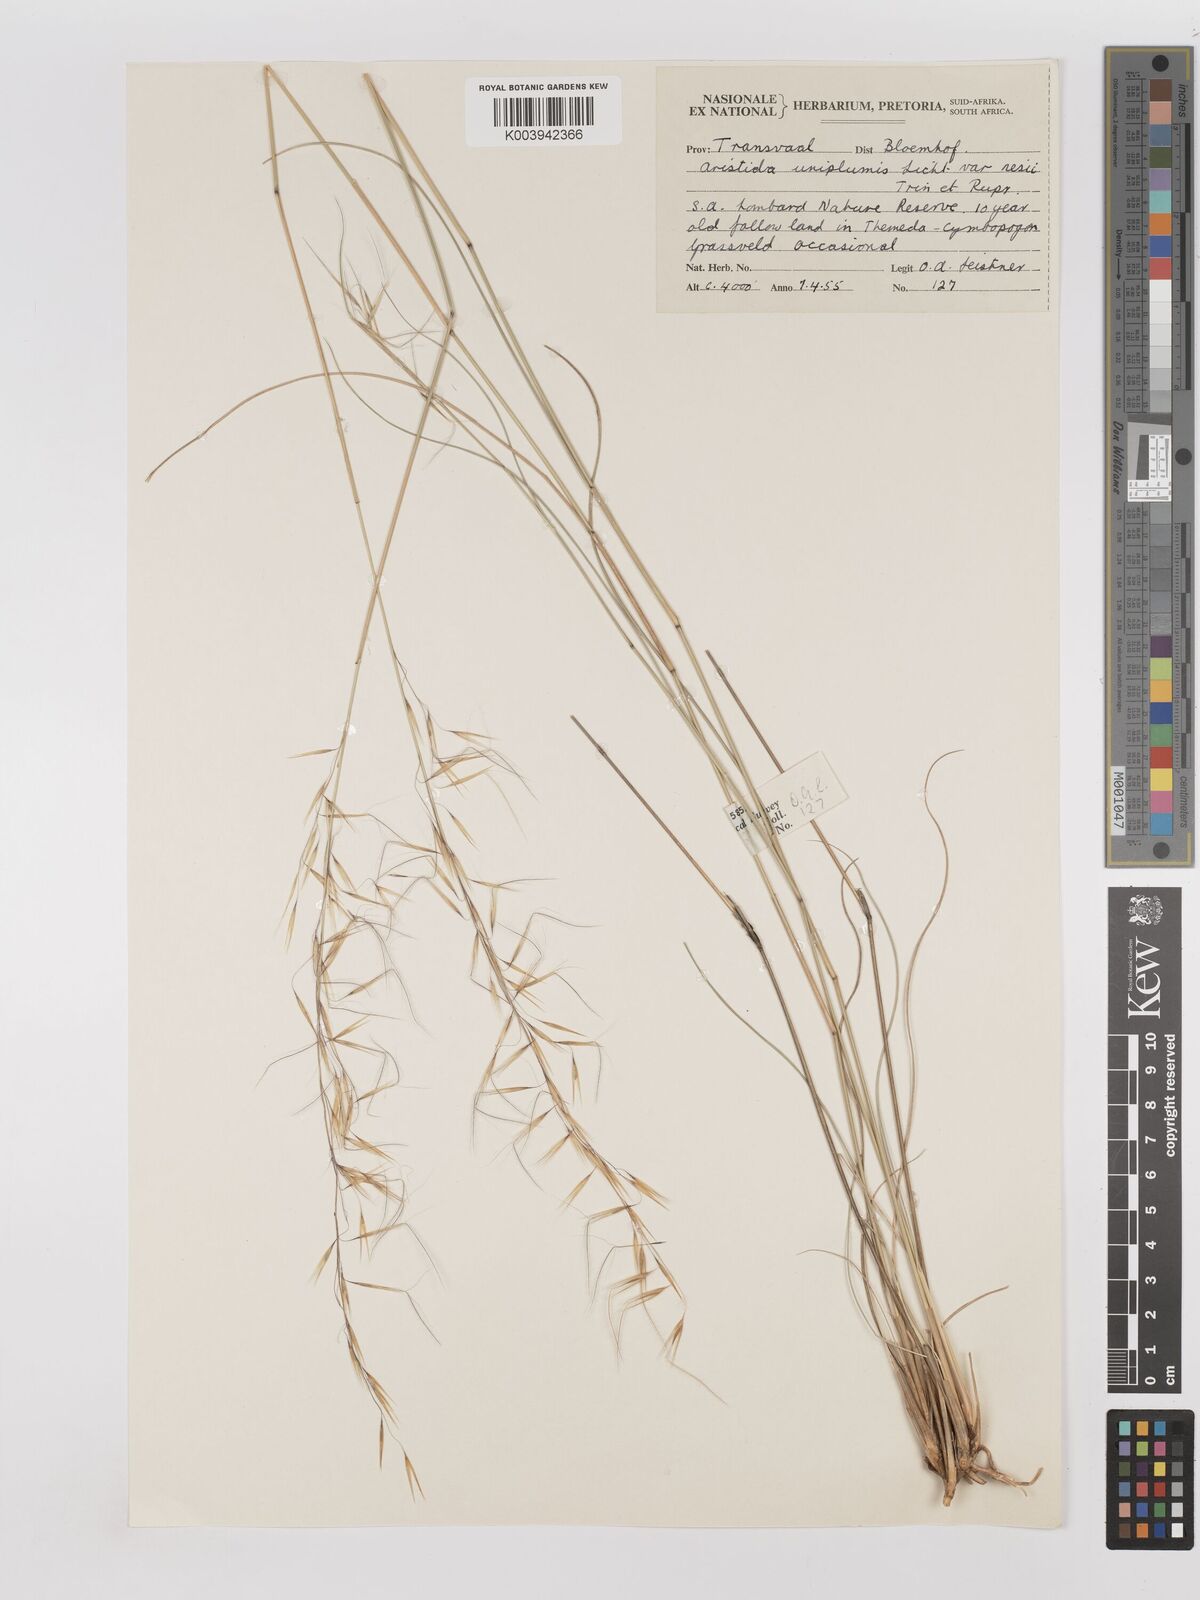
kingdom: Plantae
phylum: Tracheophyta
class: Liliopsida
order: Poales
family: Poaceae
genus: Stipagrostis
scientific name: Stipagrostis uniplumis
